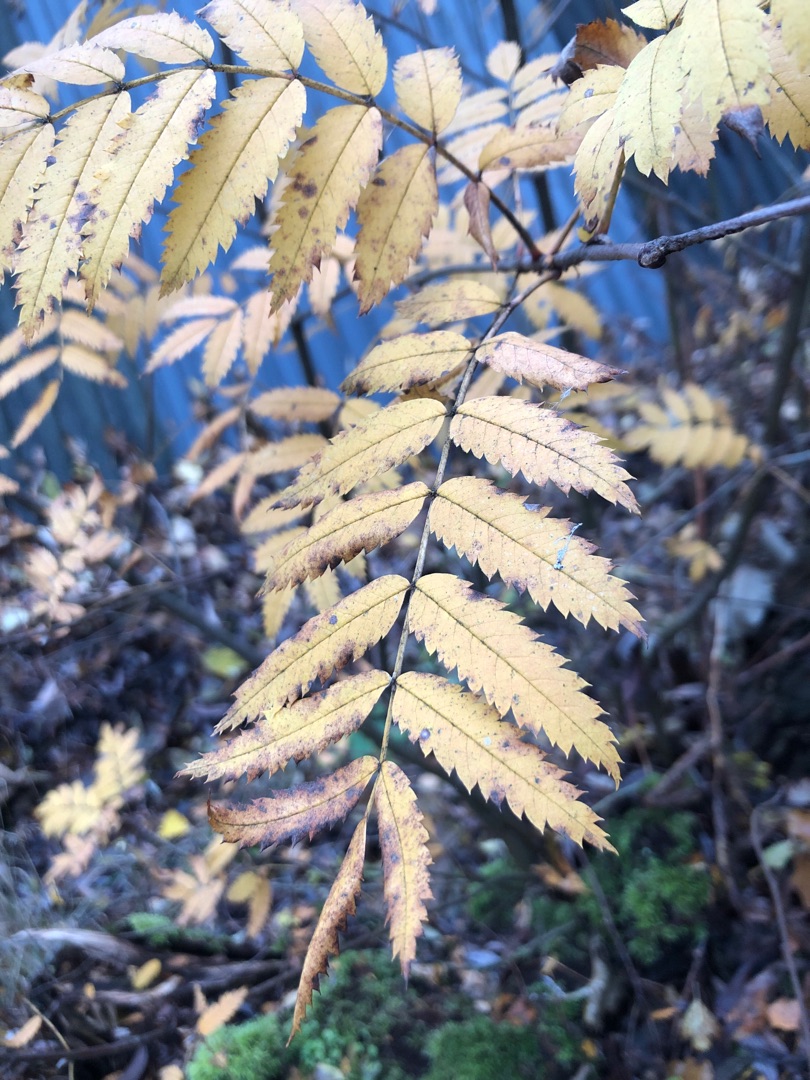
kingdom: Plantae
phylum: Tracheophyta
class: Magnoliopsida
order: Rosales
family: Rosaceae
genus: Sorbus
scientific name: Sorbus aucuparia
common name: Almindelig røn
